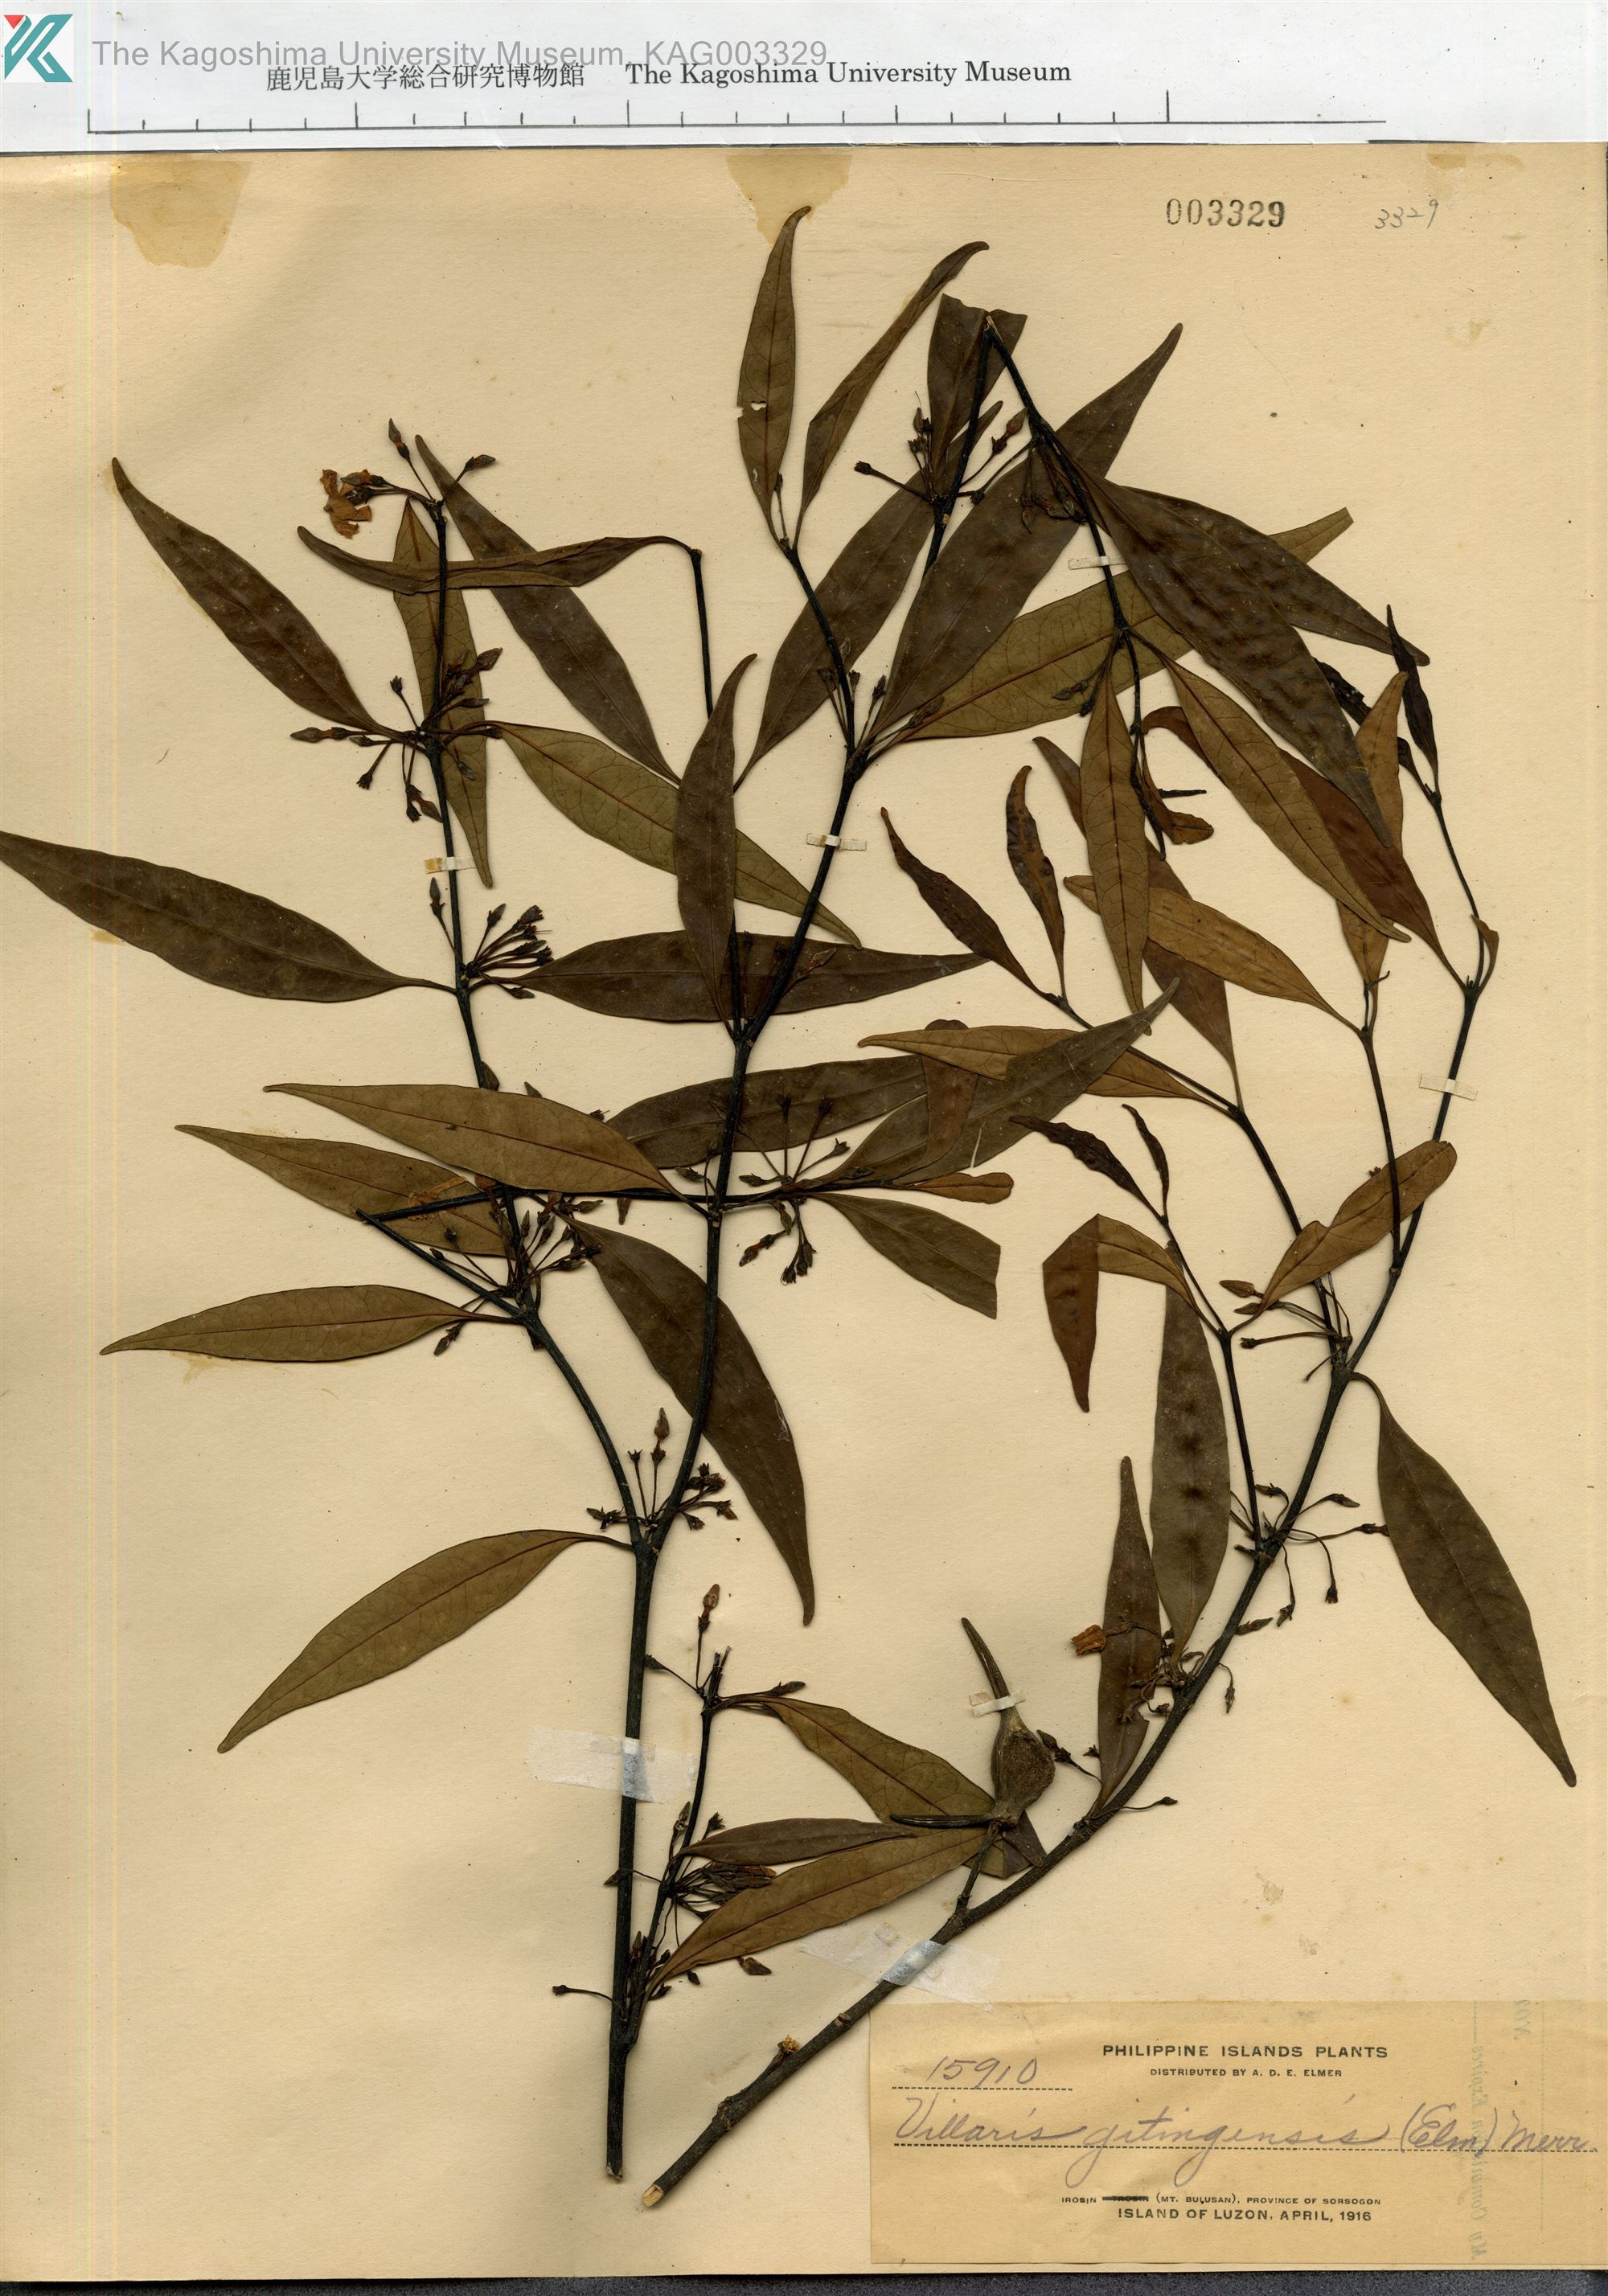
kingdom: Plantae
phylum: Tracheophyta
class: Magnoliopsida
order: Gentianales
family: Apocynaceae
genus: Kibatalia
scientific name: Kibatalia gitingensis
